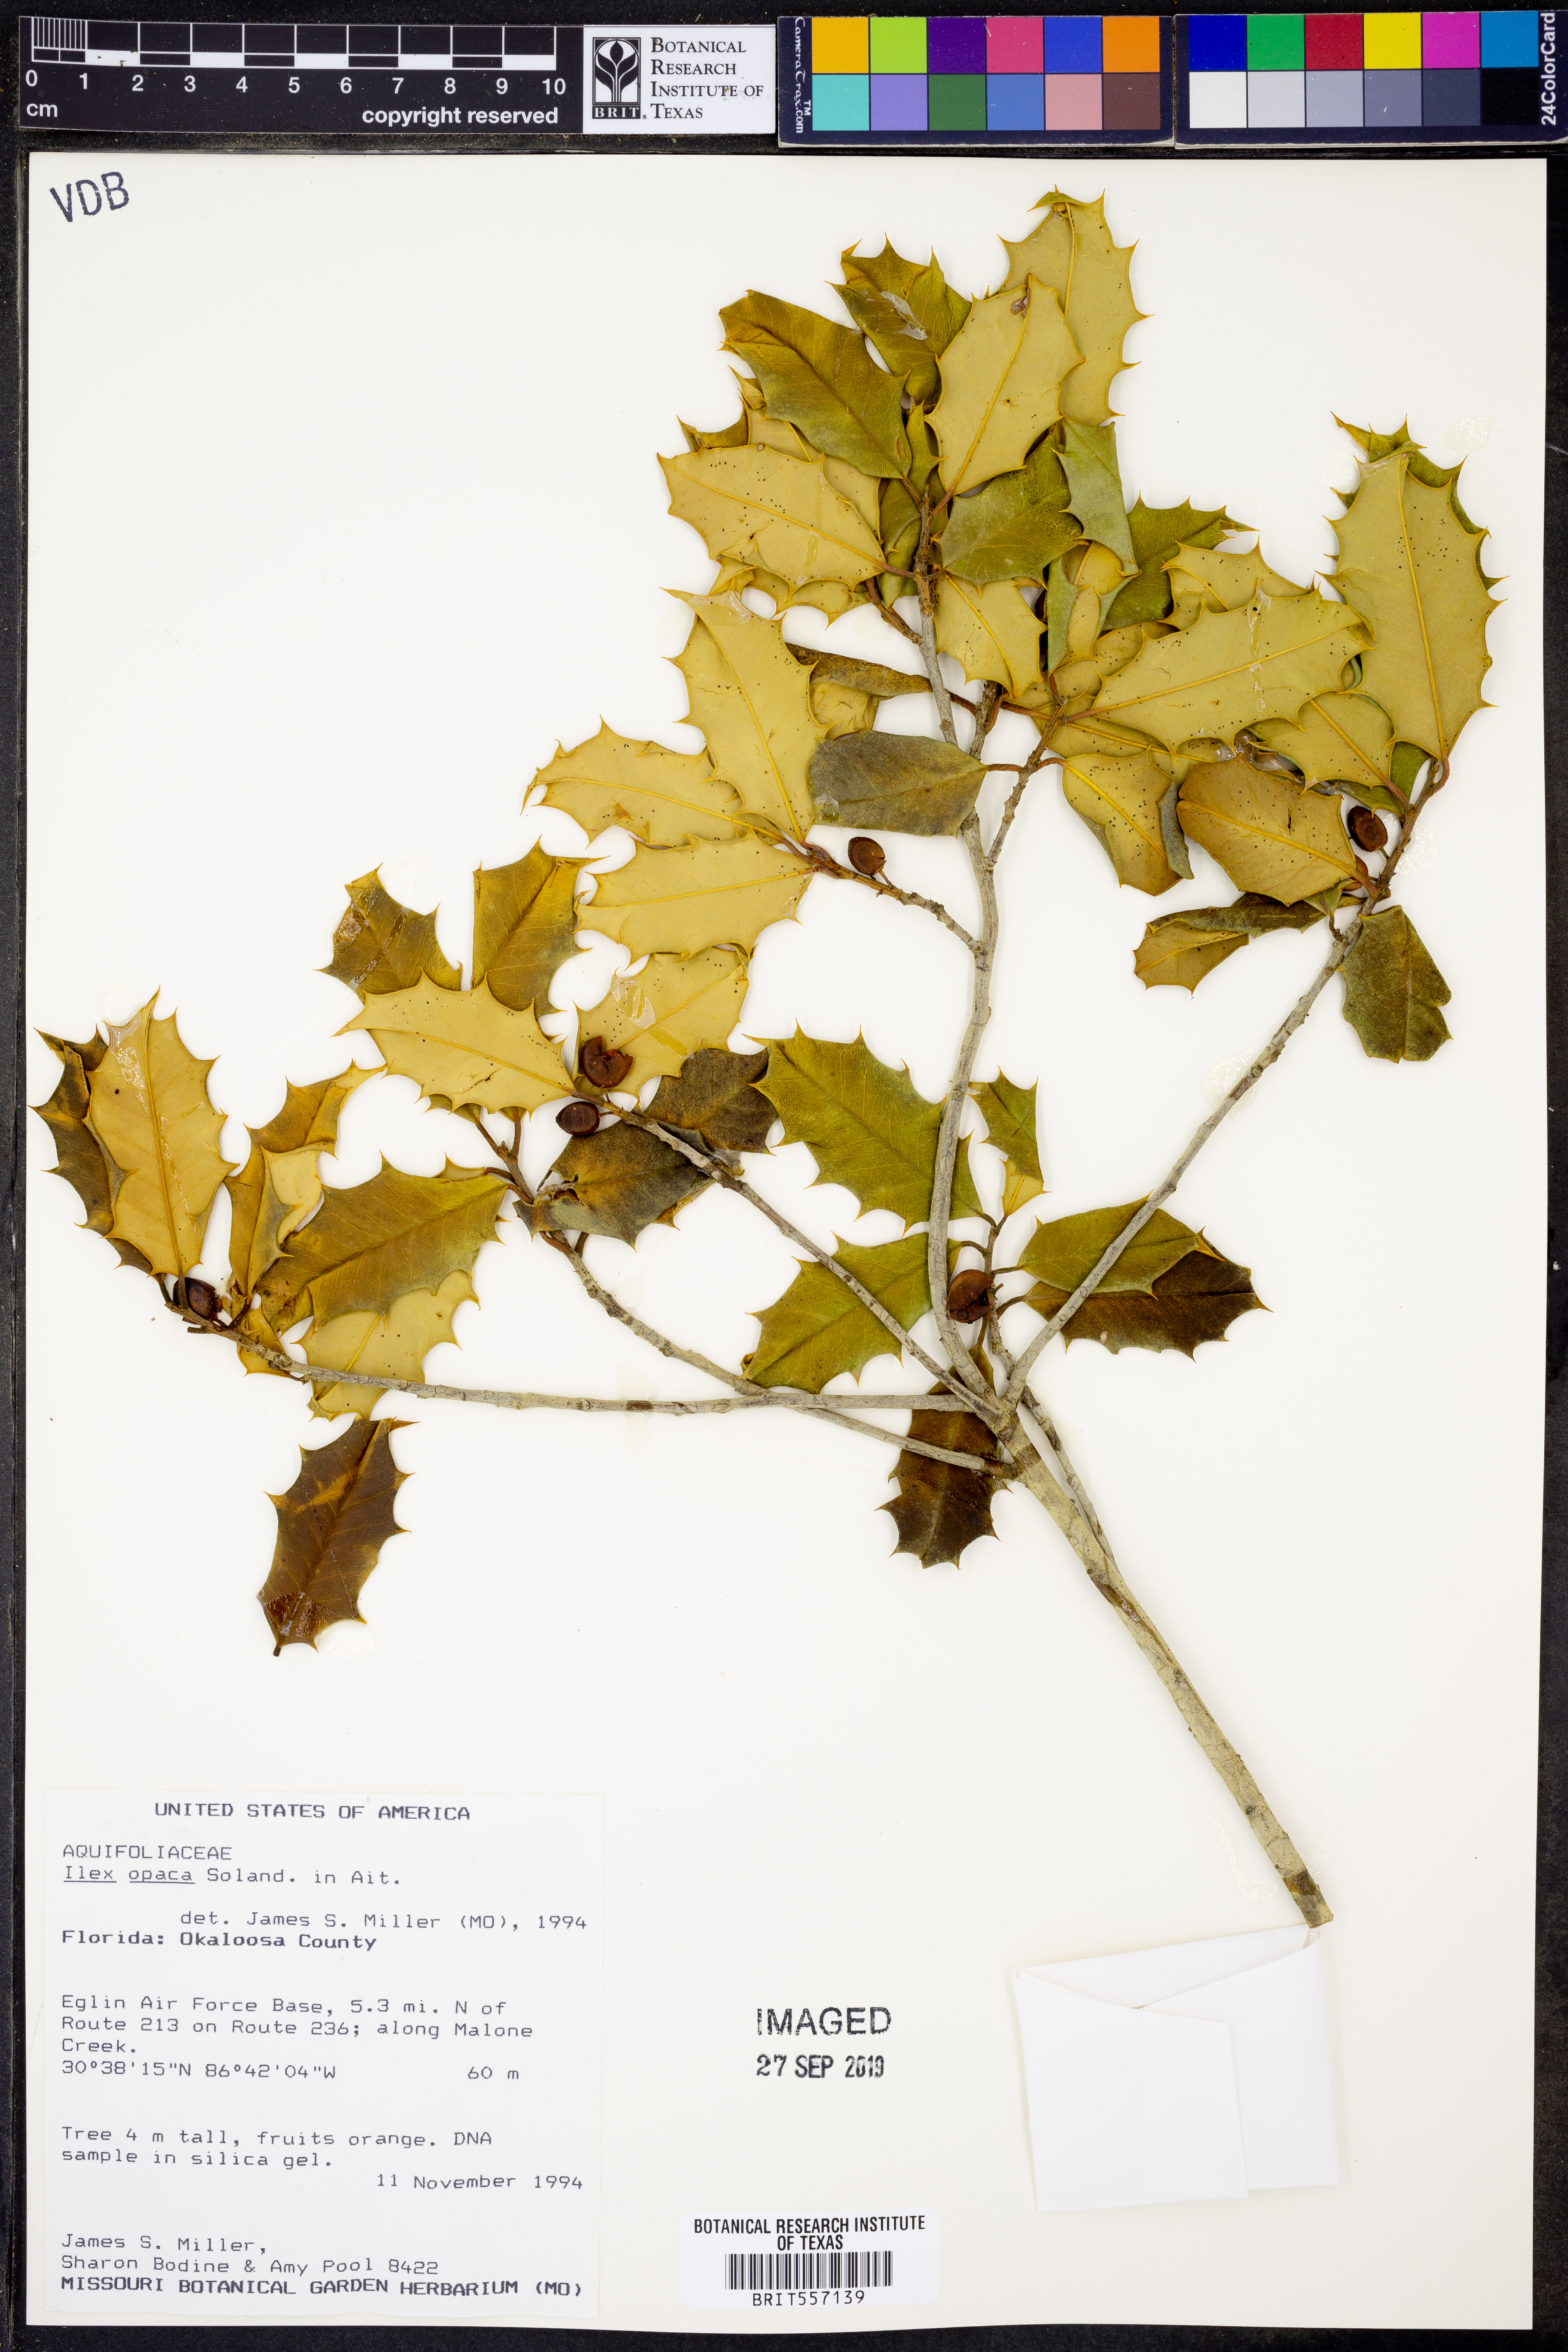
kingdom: Plantae
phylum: Tracheophyta
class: Magnoliopsida
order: Aquifoliales
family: Aquifoliaceae
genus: Ilex
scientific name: Ilex opaca
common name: American holly
